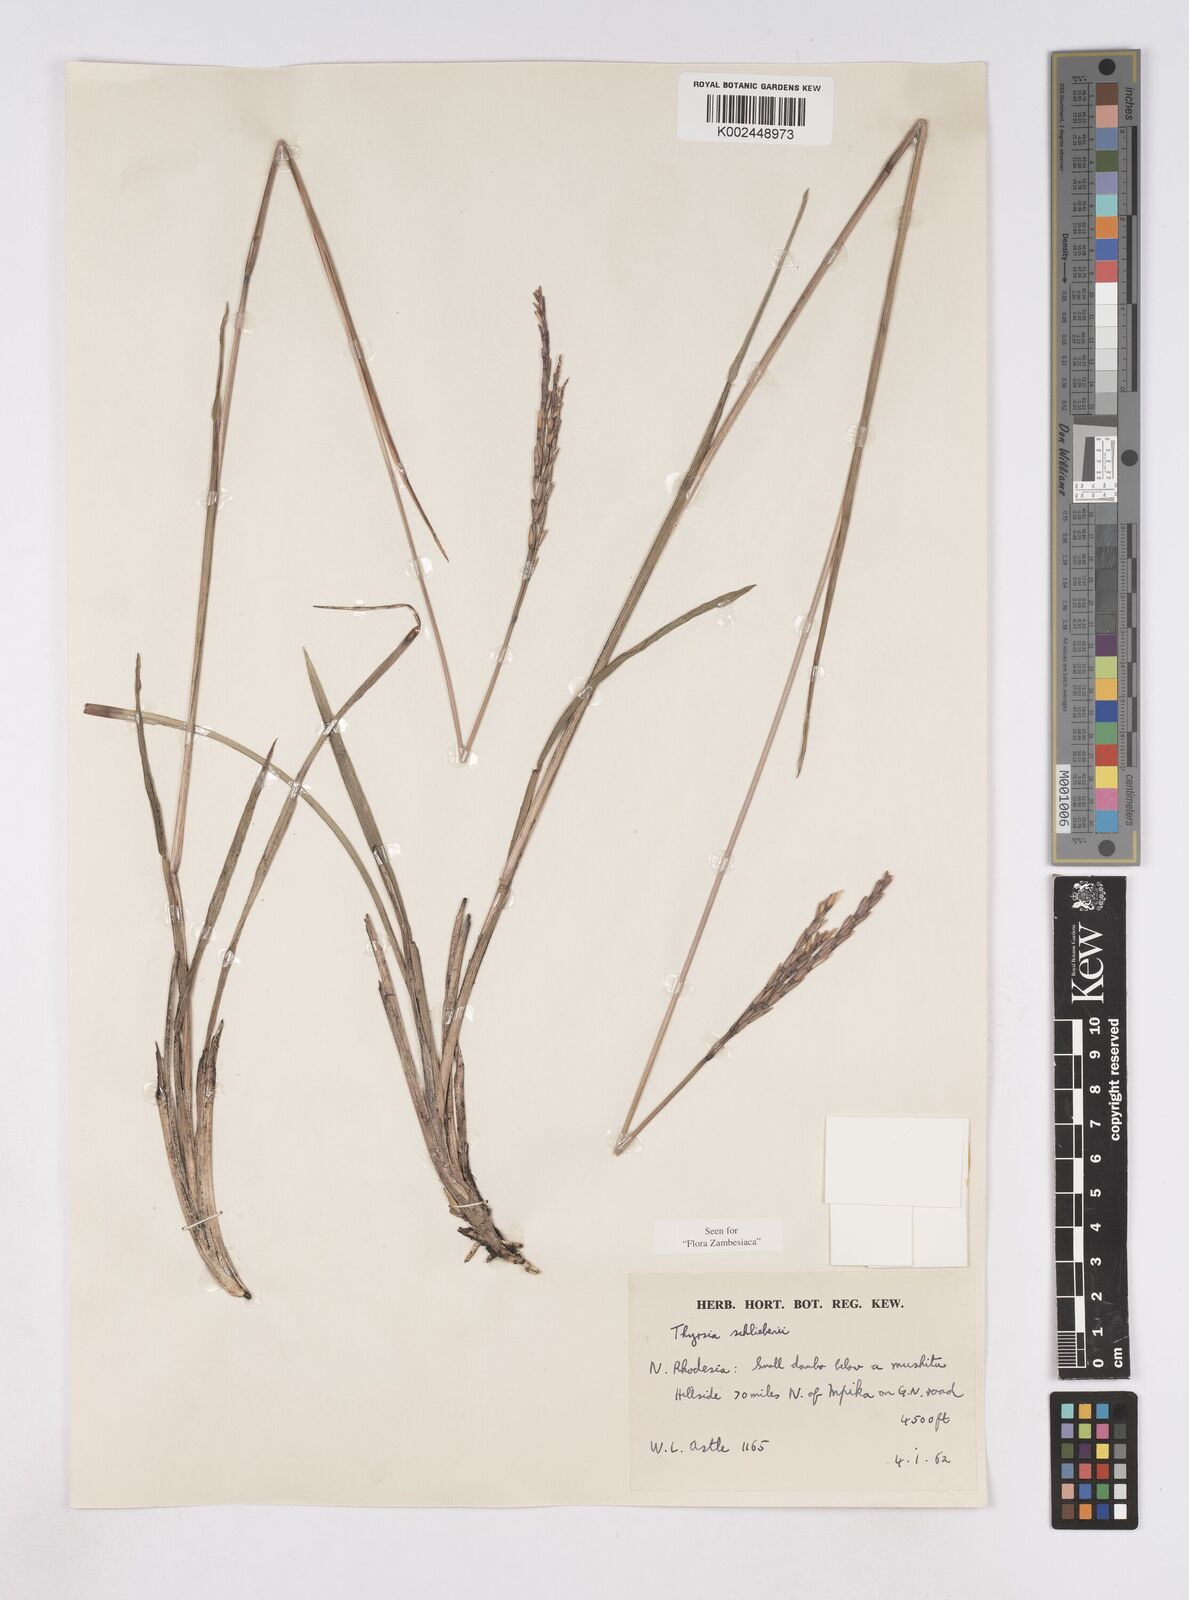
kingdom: Plantae
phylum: Tracheophyta
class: Liliopsida
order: Poales
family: Poaceae
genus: Thyrsia
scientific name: Thyrsia schliebenii
